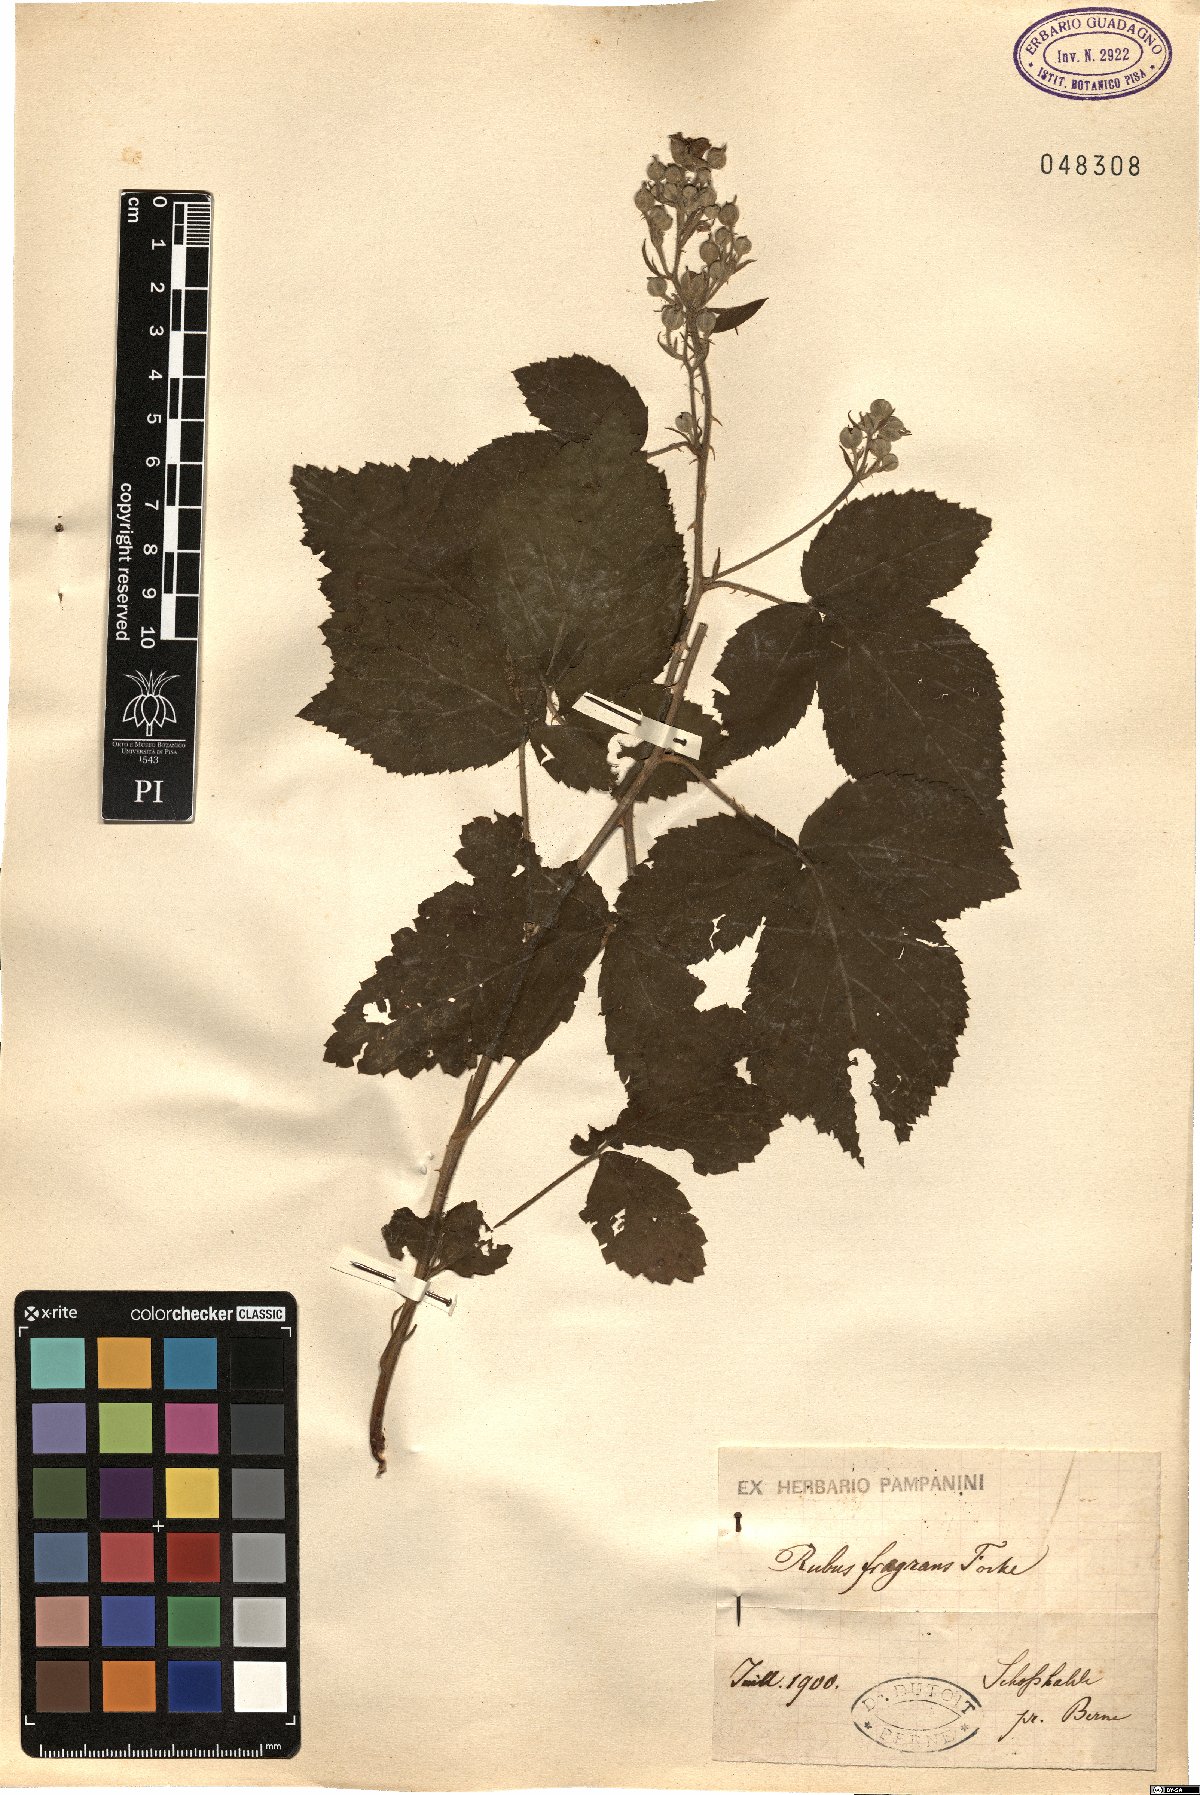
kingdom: Plantae
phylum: Tracheophyta
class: Magnoliopsida
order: Rosales
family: Rosaceae
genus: Rubus
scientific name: Rubus flaccidus
